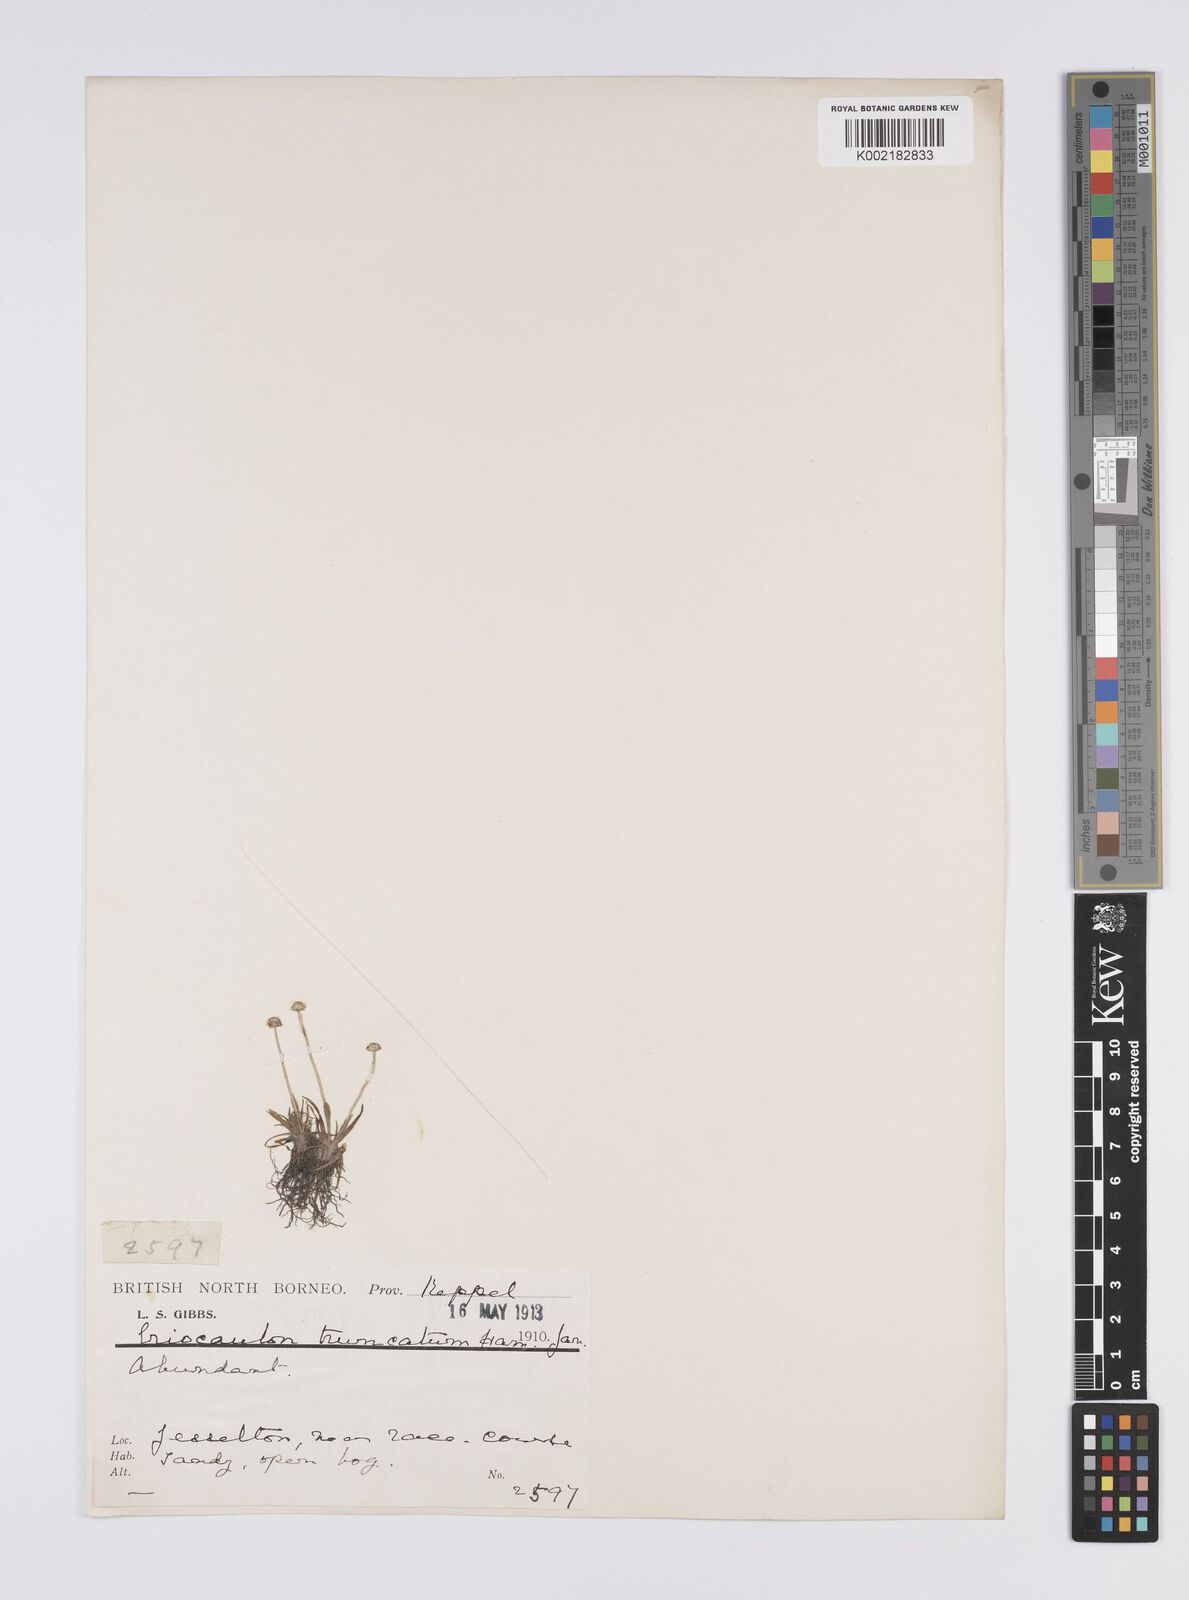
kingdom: Plantae
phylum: Tracheophyta
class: Liliopsida
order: Poales
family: Eriocaulaceae
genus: Eriocaulon
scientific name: Eriocaulon truncatum
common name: Short pipe-wort
